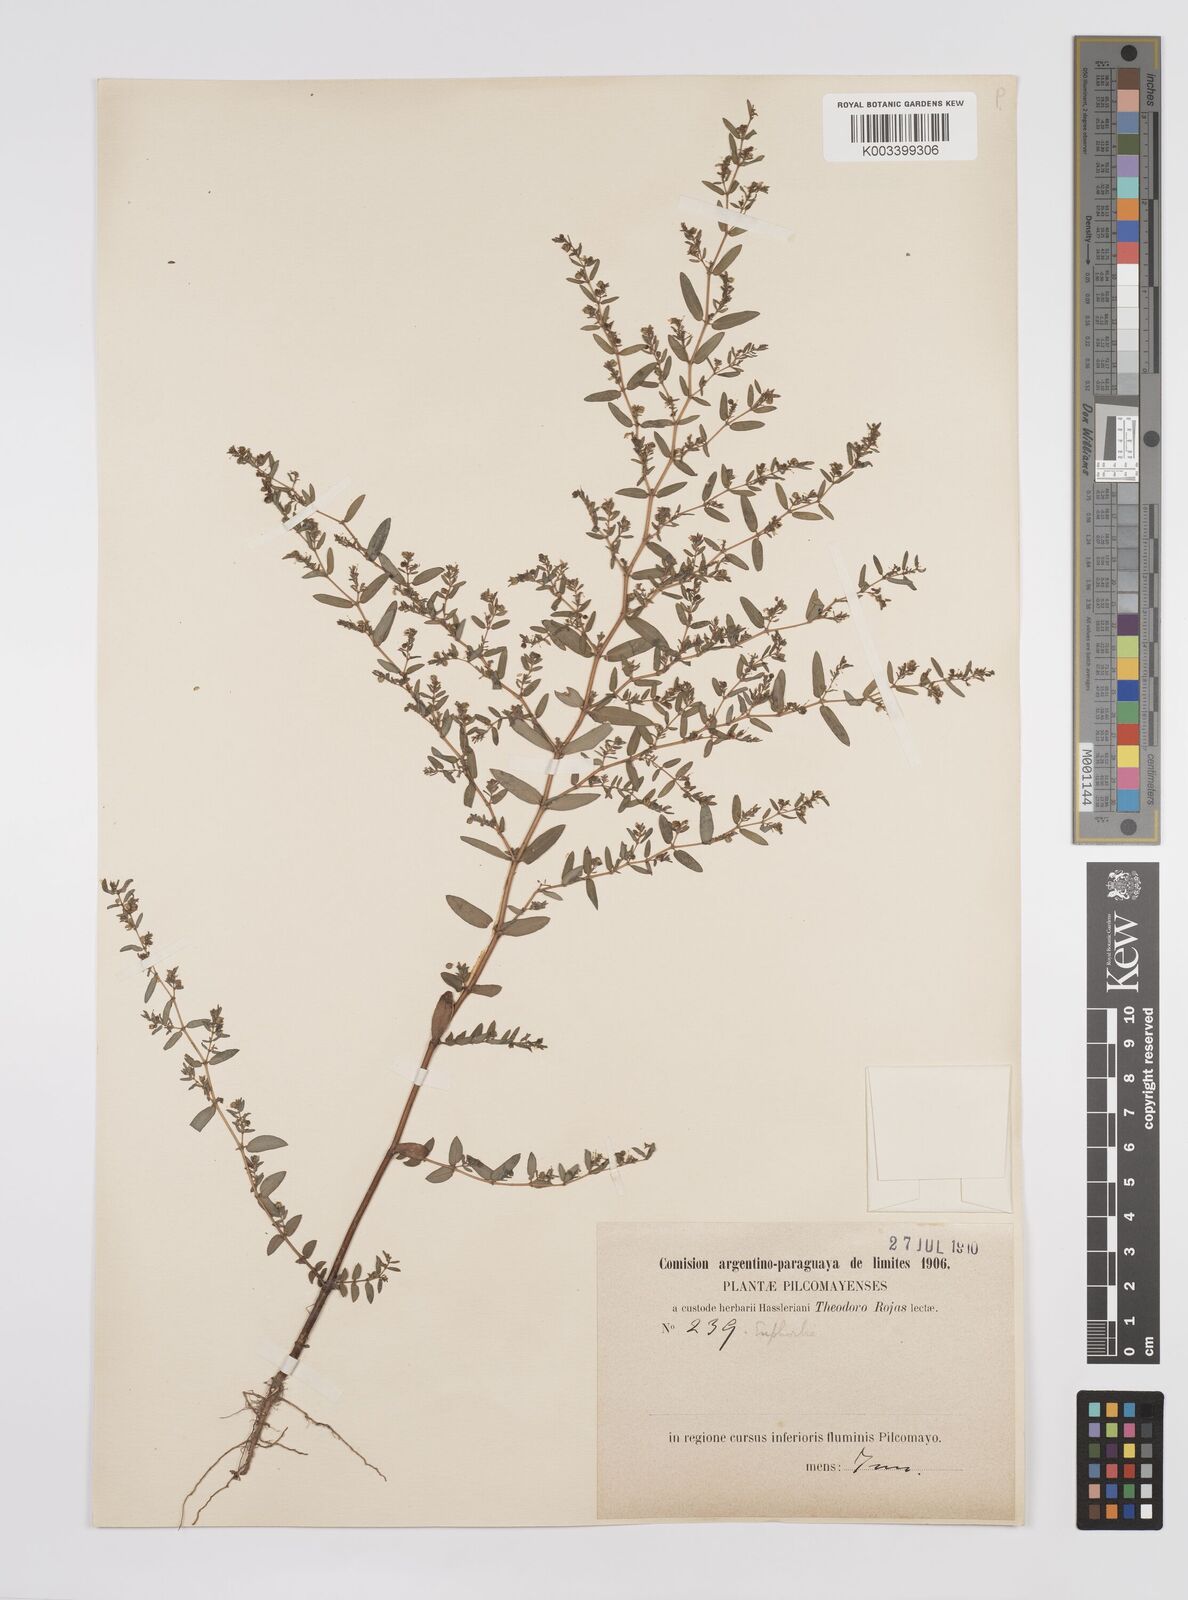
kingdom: Plantae
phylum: Tracheophyta
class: Magnoliopsida
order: Malpighiales
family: Euphorbiaceae
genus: Euphorbia
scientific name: Euphorbia
